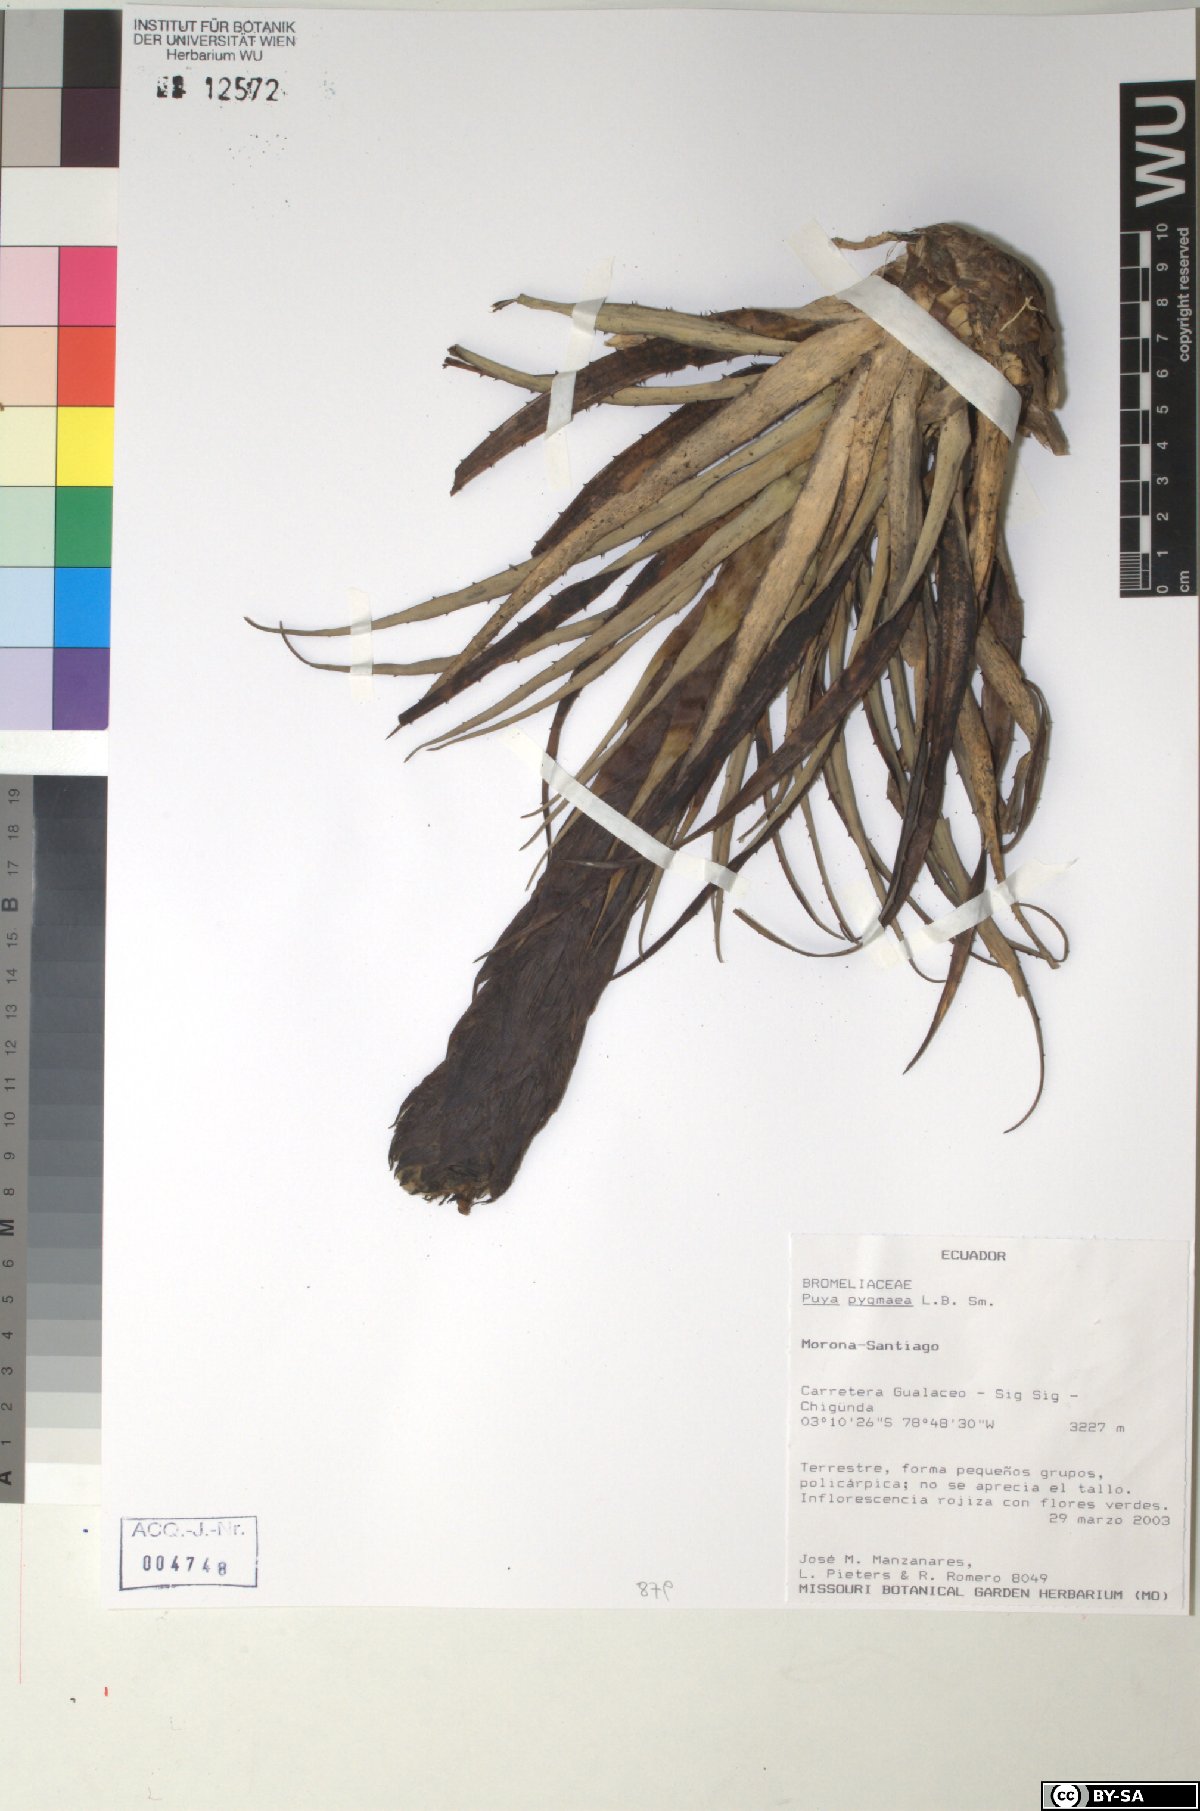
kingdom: Plantae
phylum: Tracheophyta
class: Liliopsida
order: Poales
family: Bromeliaceae
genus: Puya
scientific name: Puya pygmaea
